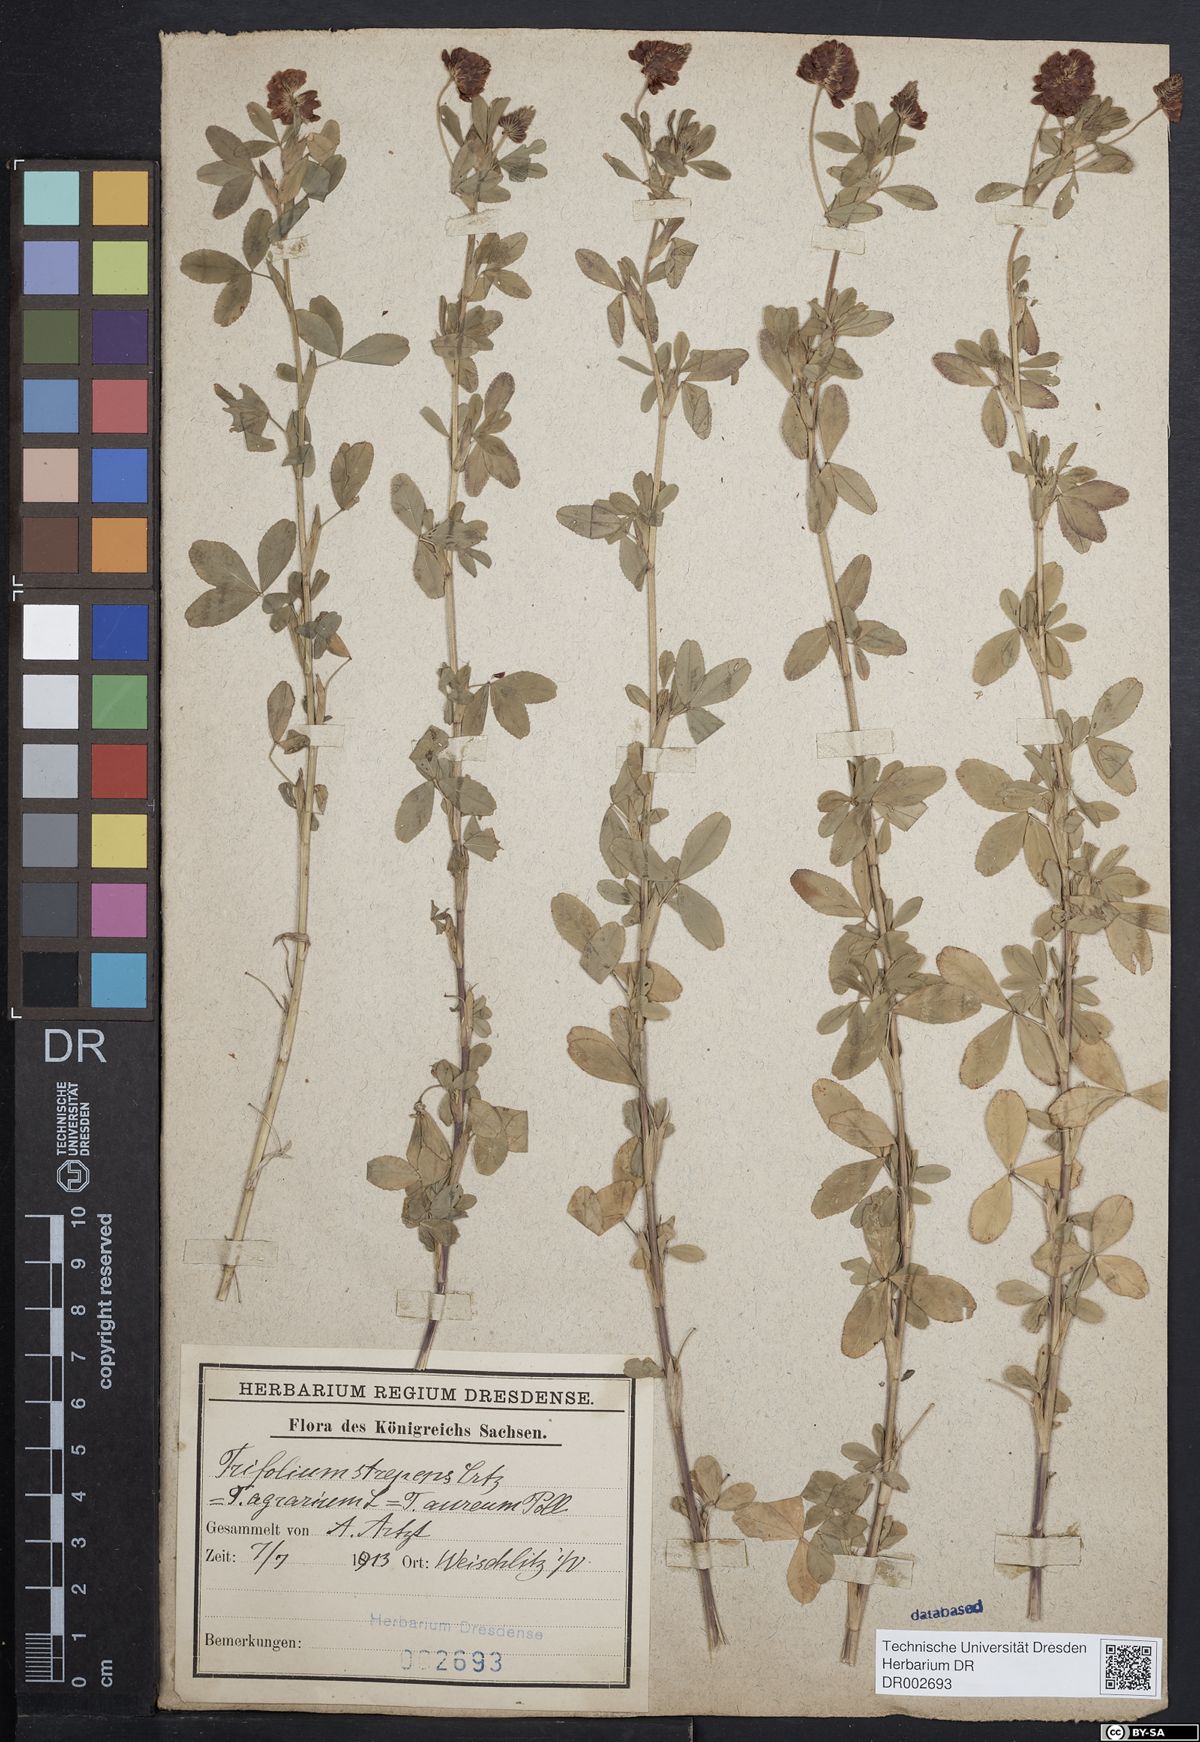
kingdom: Plantae
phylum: Tracheophyta
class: Magnoliopsida
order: Fabales
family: Fabaceae
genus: Trifolium
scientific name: Trifolium aureum
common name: Golden clover
